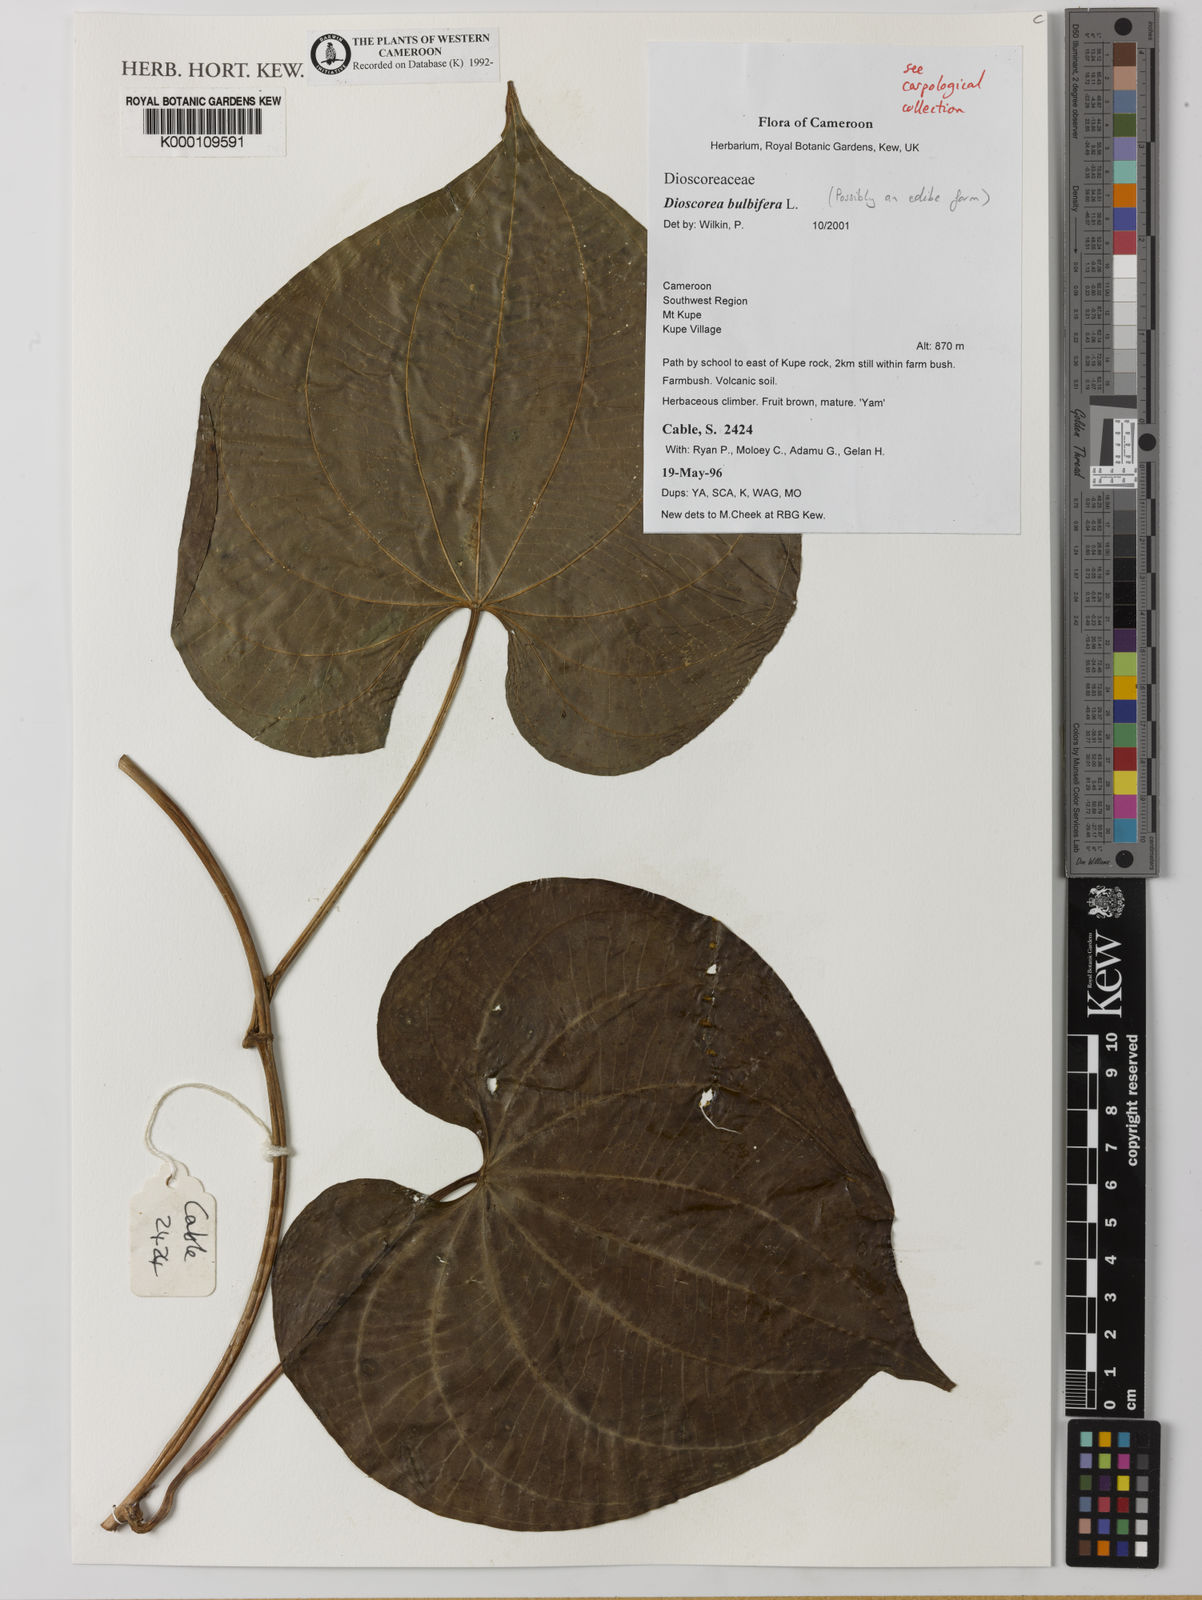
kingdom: Plantae
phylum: Tracheophyta
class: Liliopsida
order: Dioscoreales
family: Dioscoreaceae
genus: Dioscorea
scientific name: Dioscorea bulbifera
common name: Air yam
